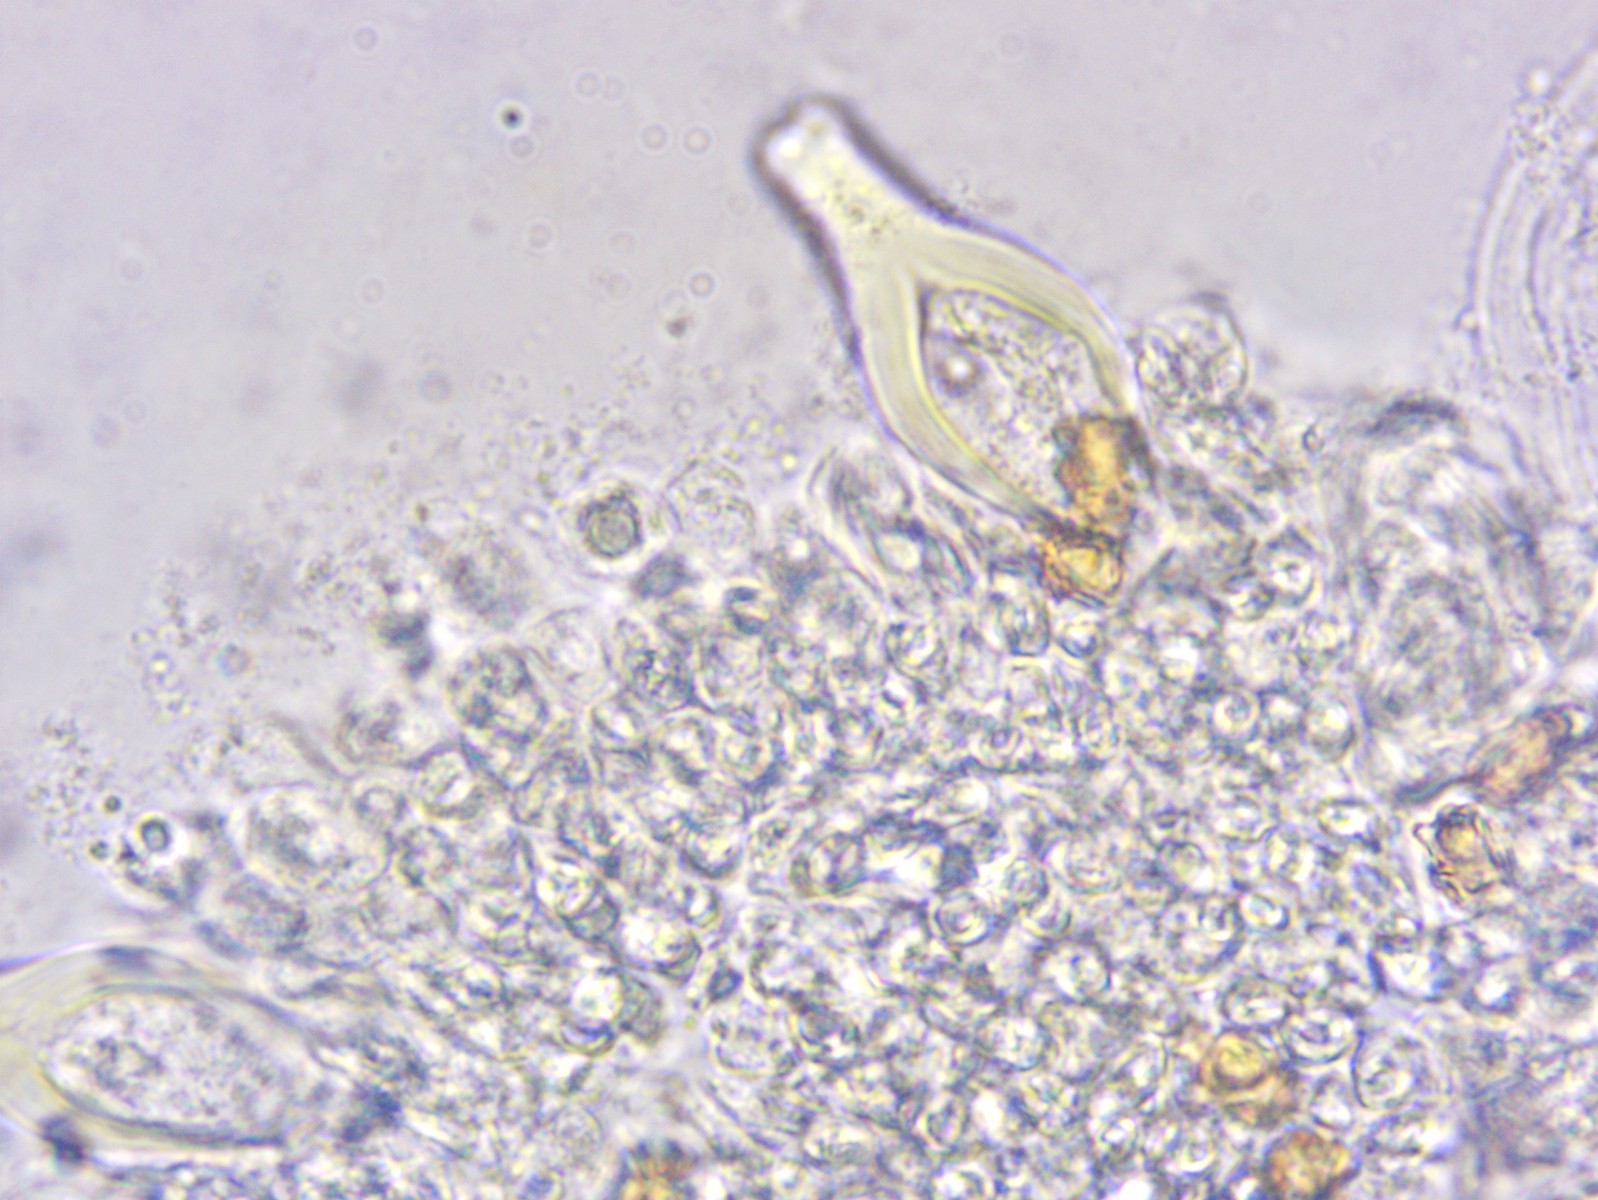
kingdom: Fungi
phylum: Basidiomycota
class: Agaricomycetes
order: Agaricales
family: Inocybaceae
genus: Inocybe
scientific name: Inocybe
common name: trævlhat
